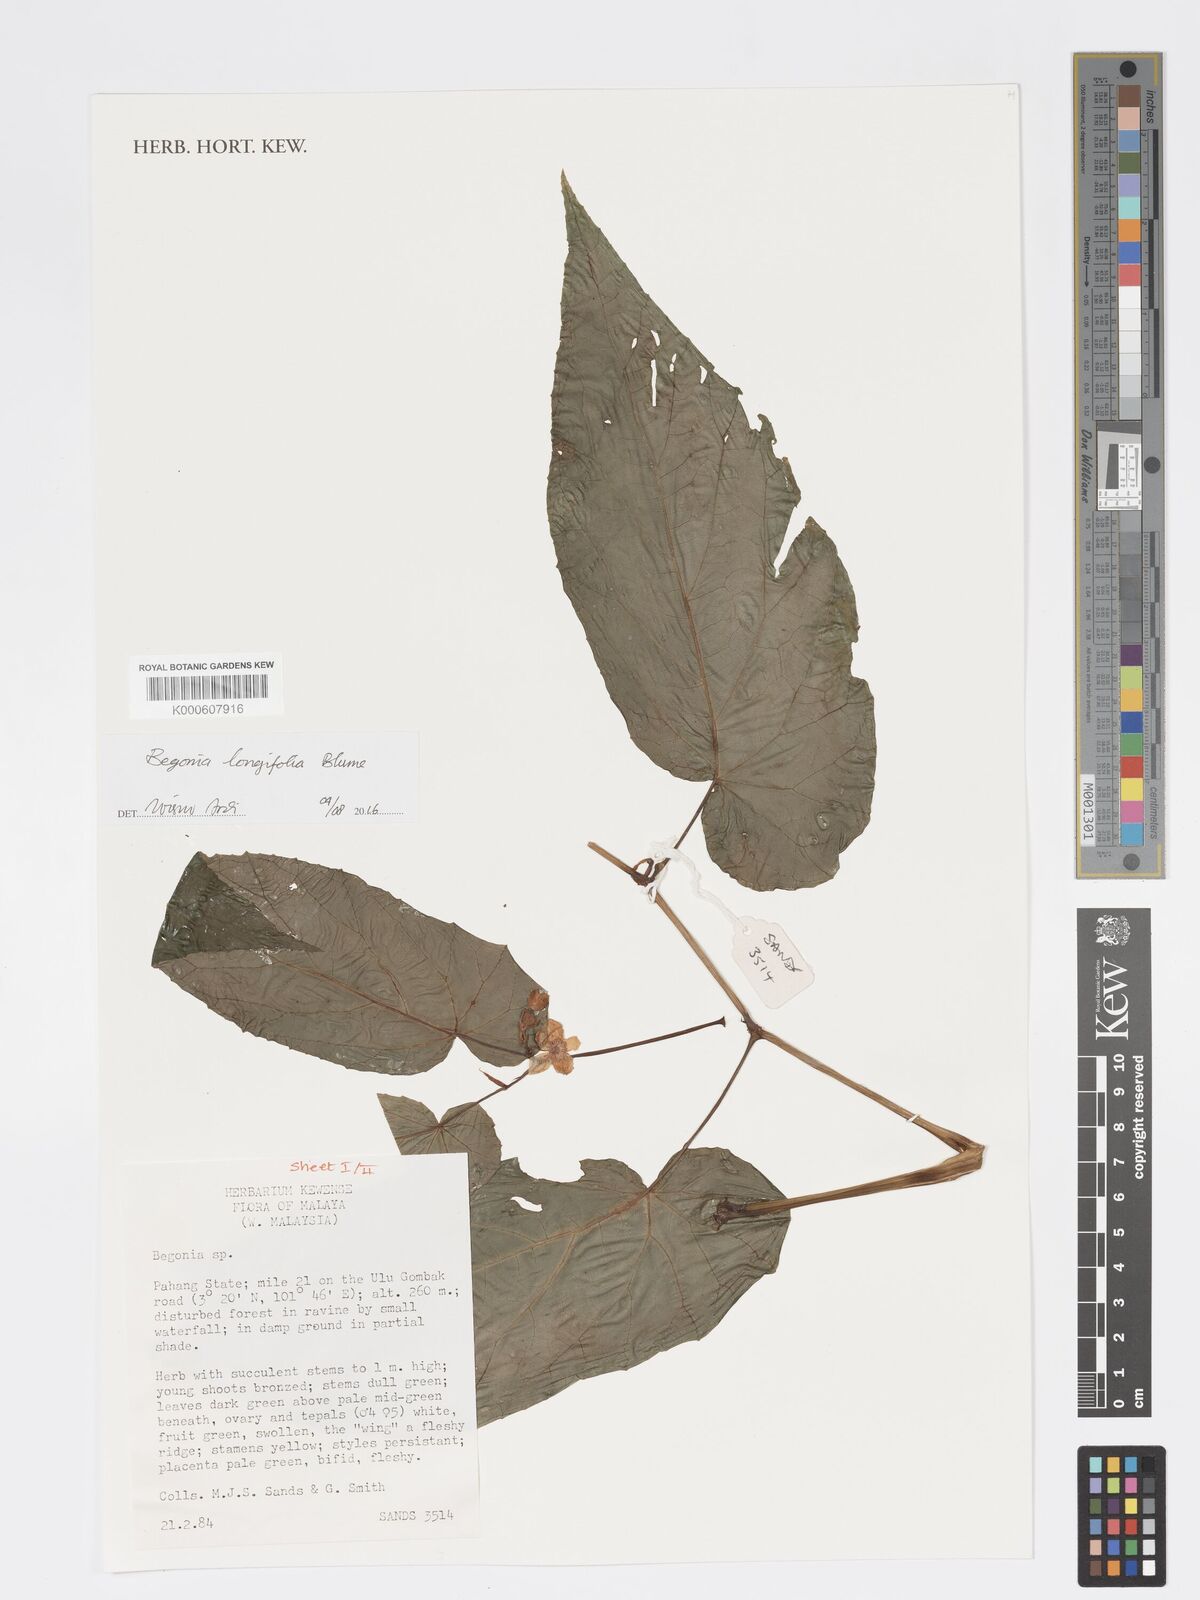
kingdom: Plantae
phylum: Tracheophyta
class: Magnoliopsida
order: Cucurbitales
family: Begoniaceae
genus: Begonia
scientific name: Begonia longifolia
